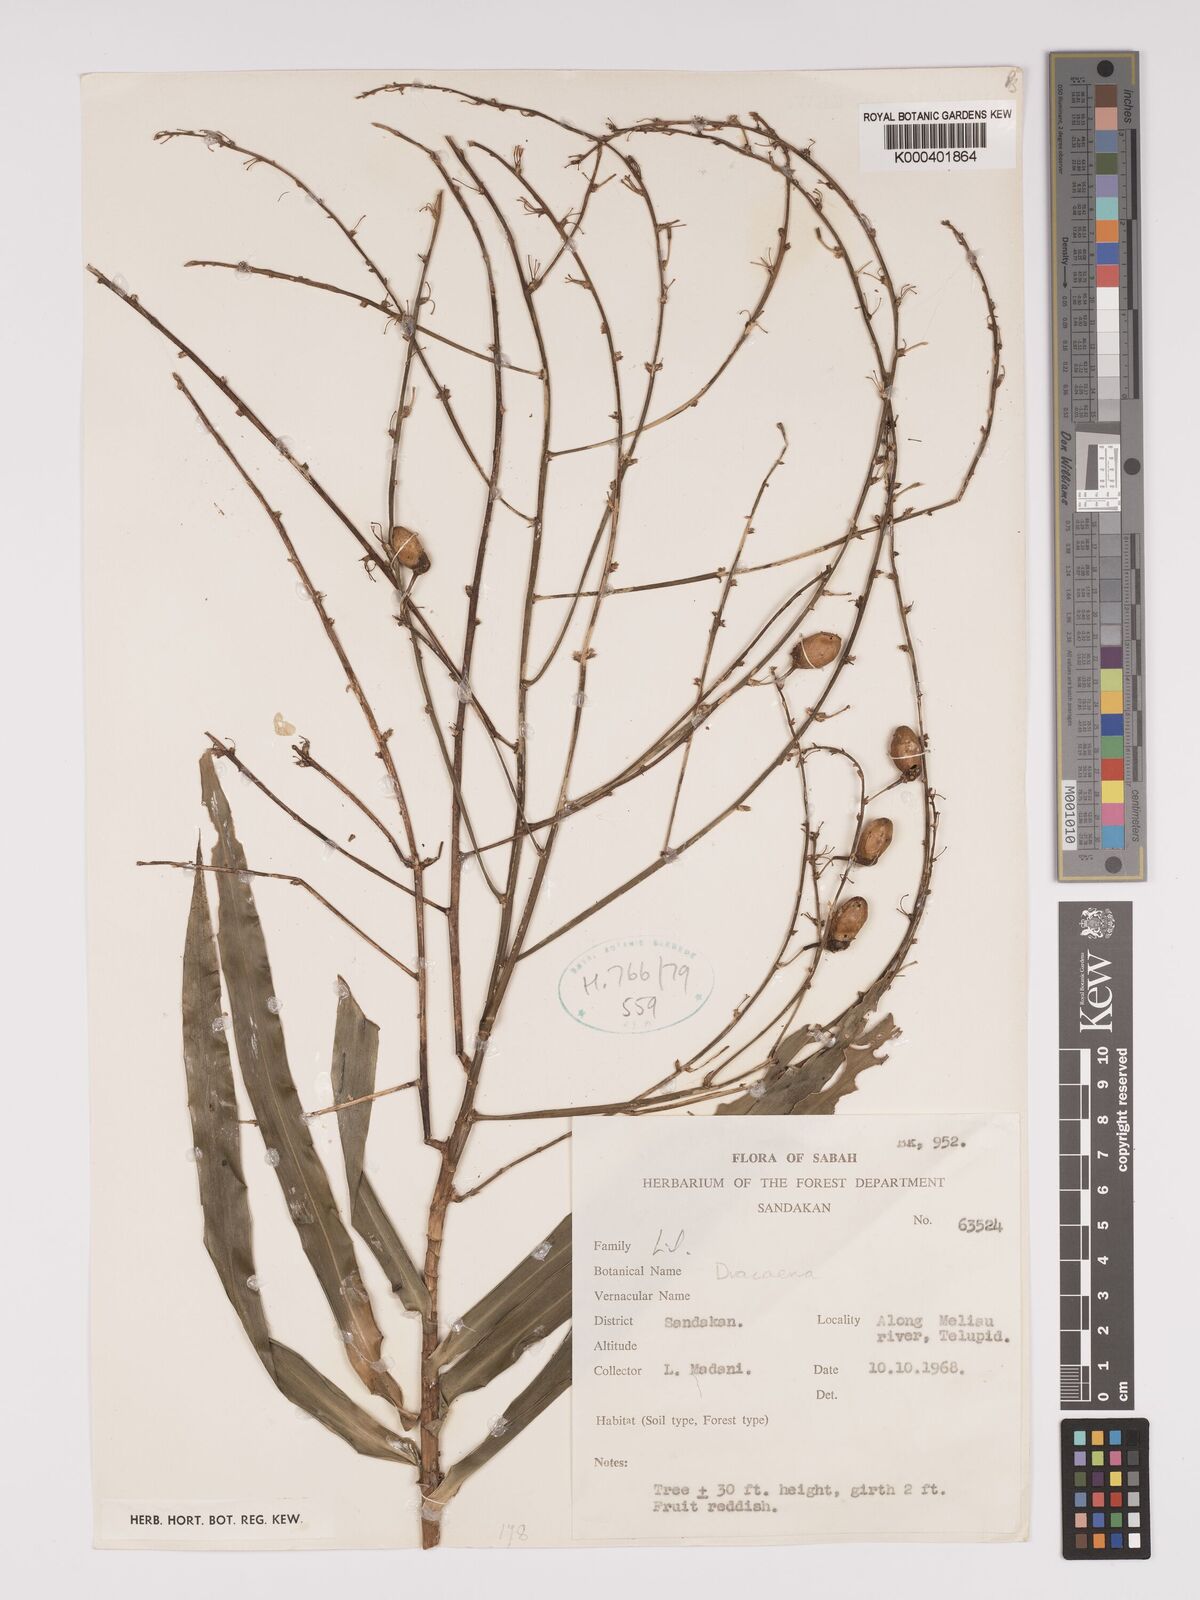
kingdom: Plantae
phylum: Tracheophyta
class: Liliopsida
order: Asparagales
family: Asparagaceae
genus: Dracaena
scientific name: Dracaena
